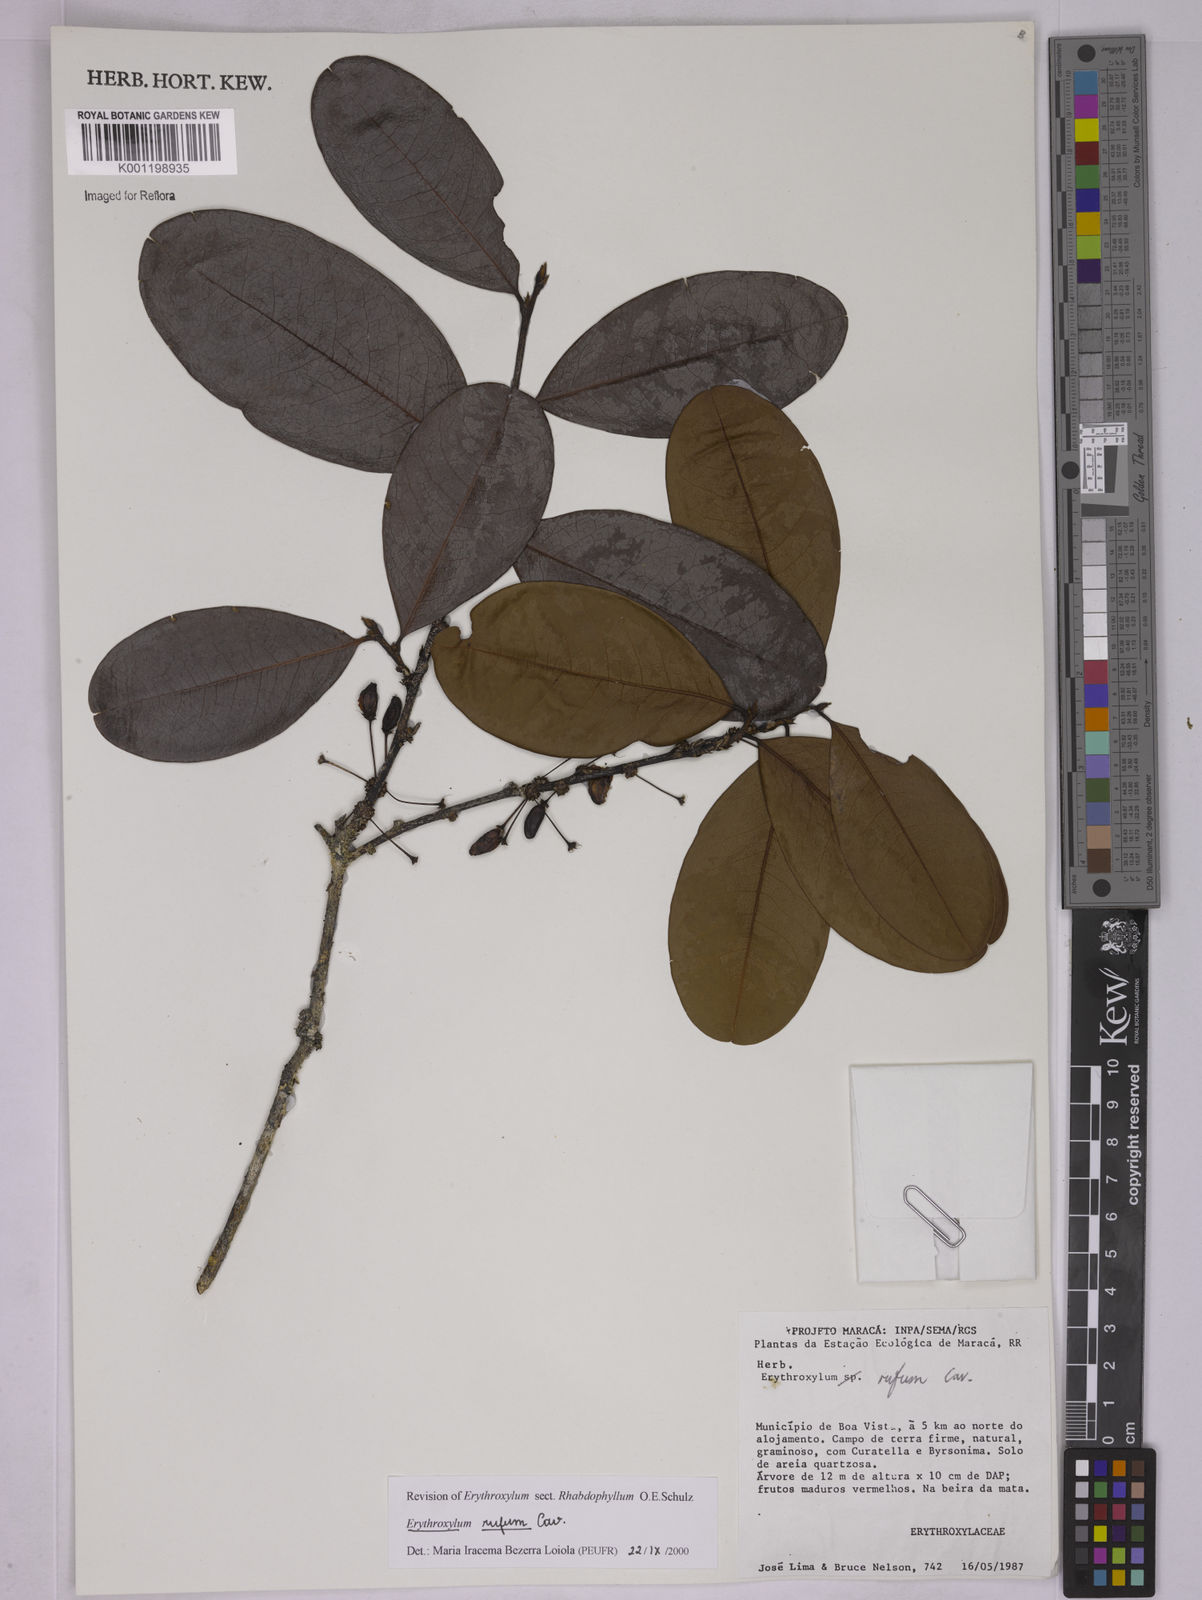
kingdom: Plantae
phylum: Tracheophyta
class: Magnoliopsida
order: Malpighiales
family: Erythroxylaceae
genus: Erythroxylum
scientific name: Erythroxylum rufum
